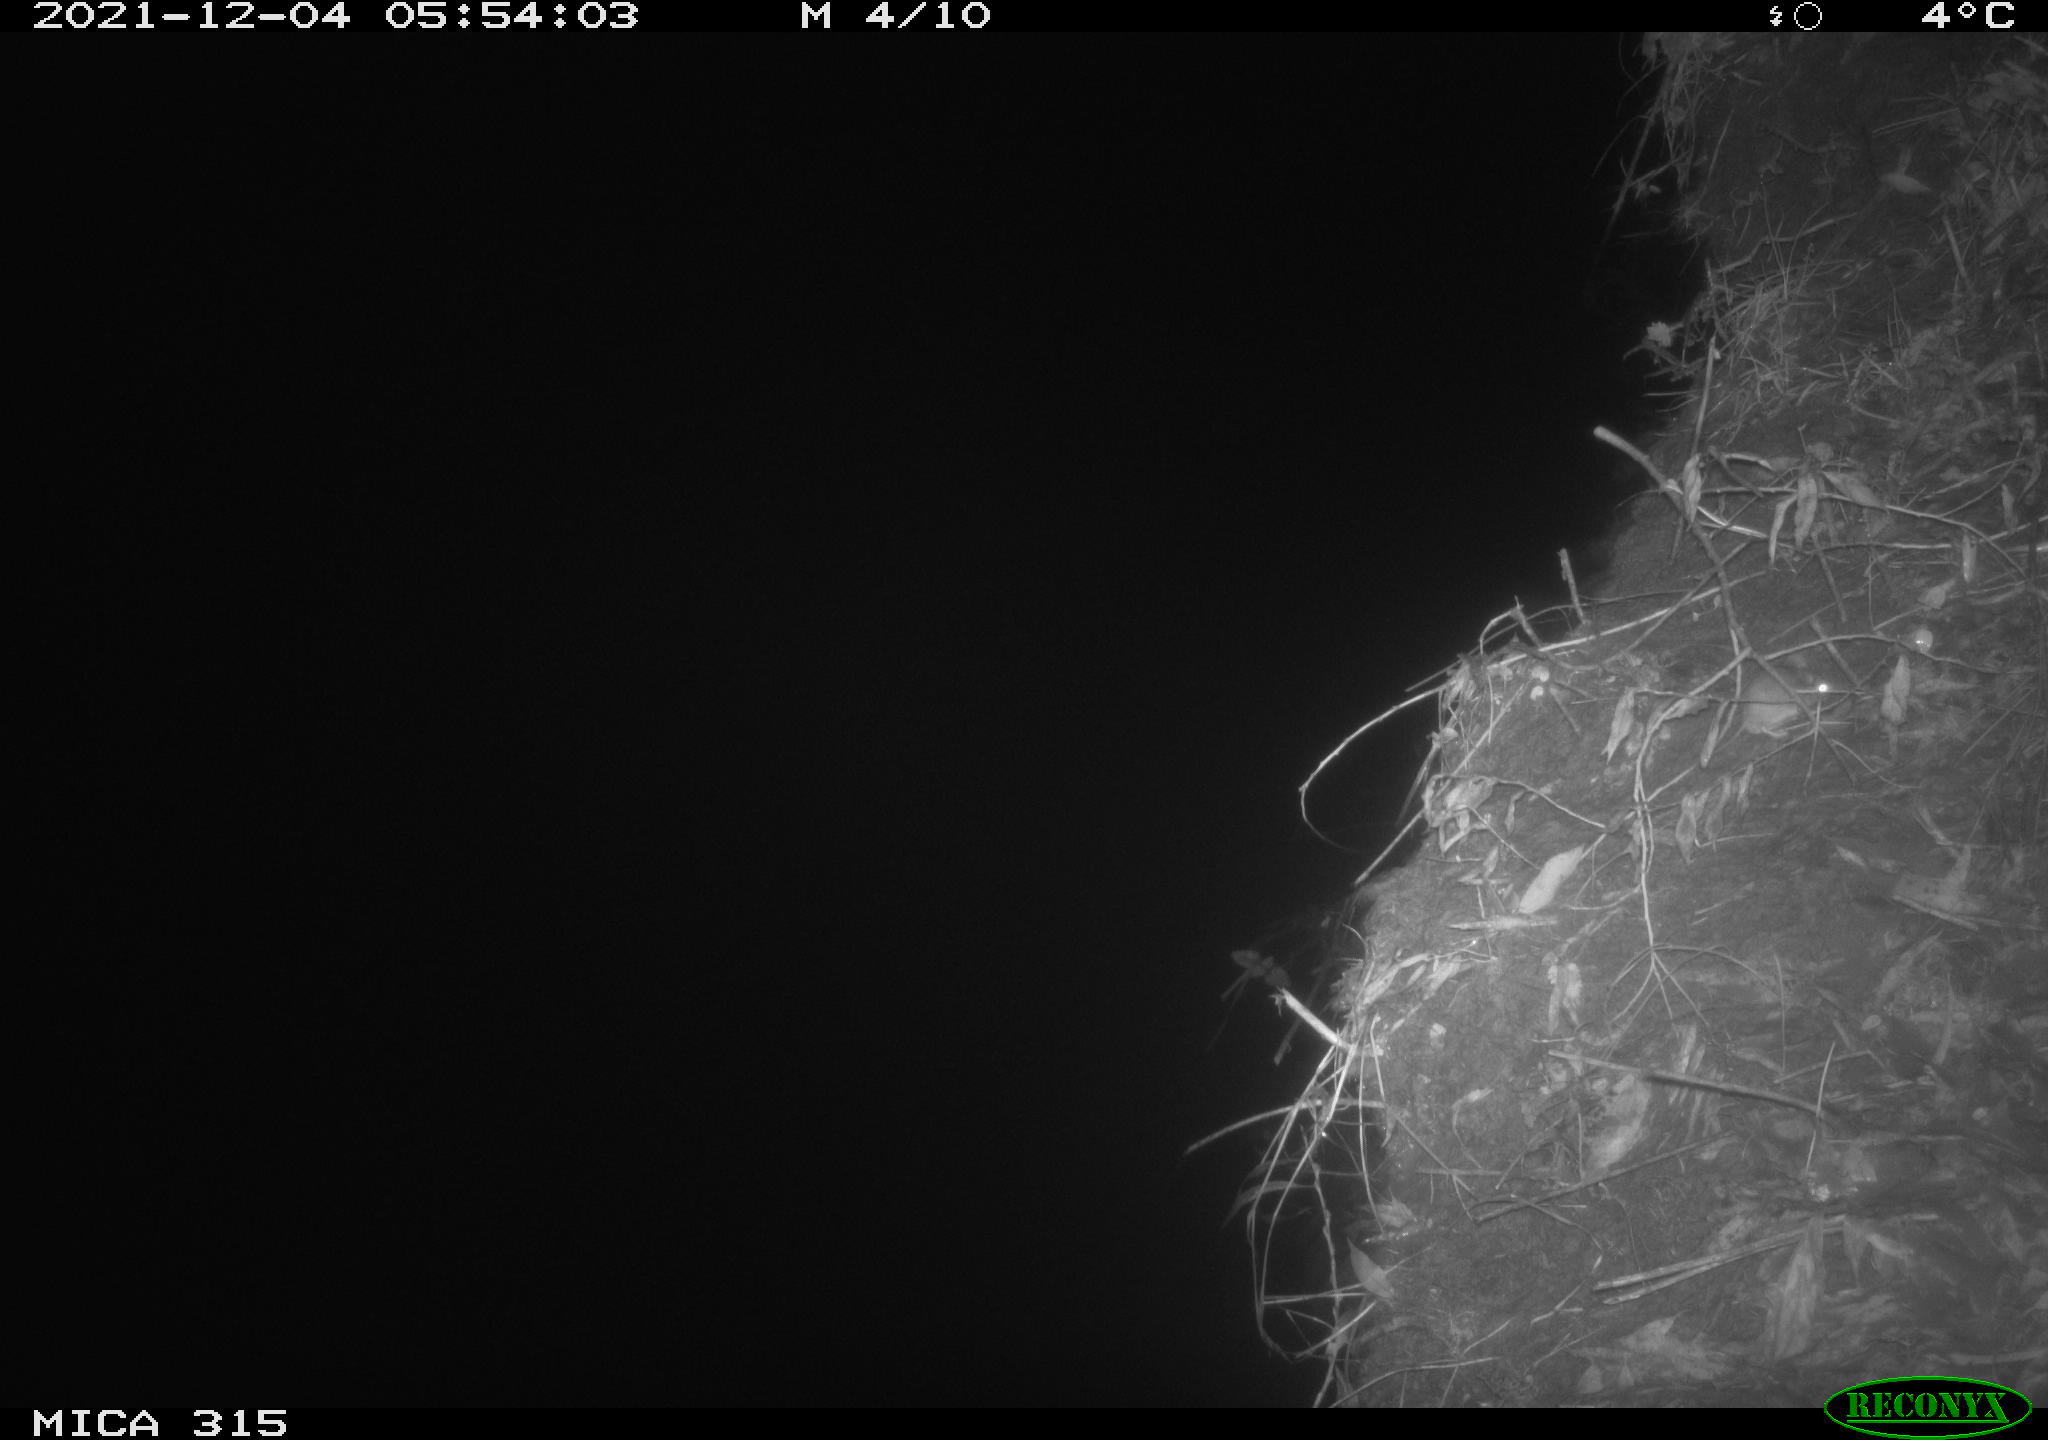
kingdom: Animalia
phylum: Chordata
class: Mammalia
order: Rodentia
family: Muridae
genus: Rattus
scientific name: Rattus norvegicus
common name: Brown rat
